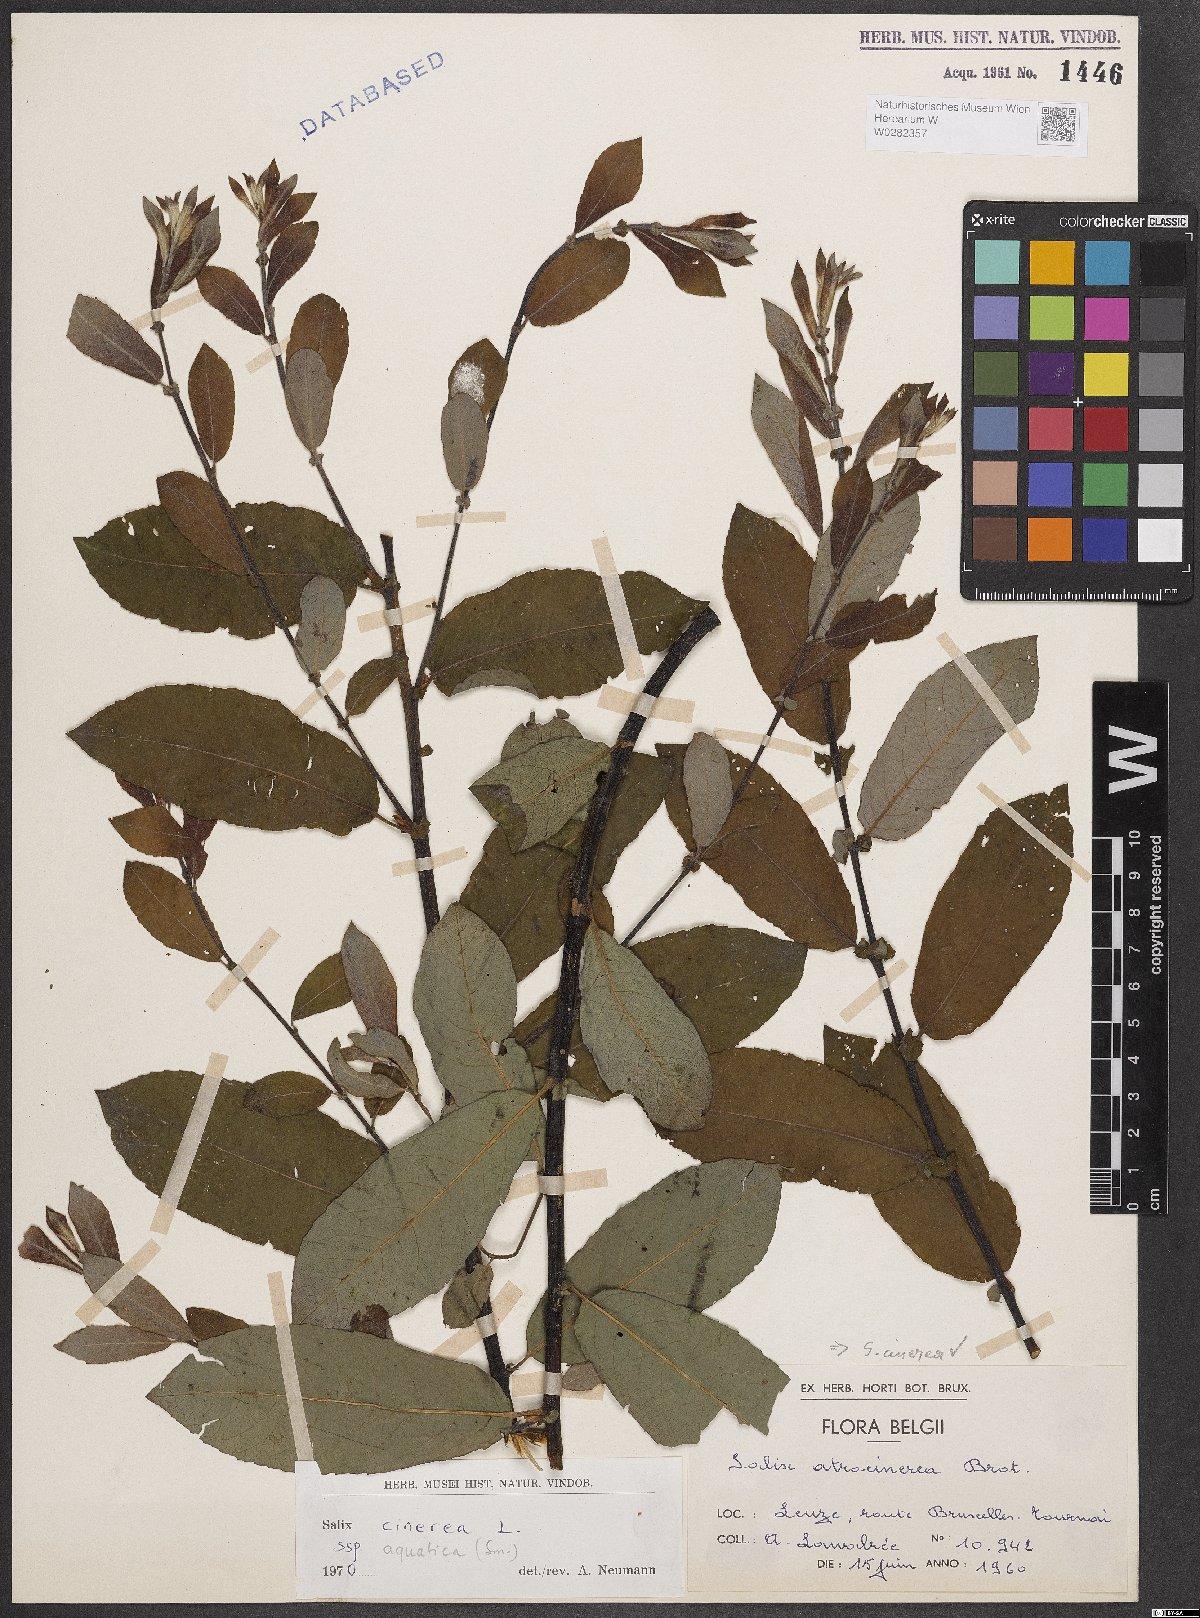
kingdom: Plantae
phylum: Tracheophyta
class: Magnoliopsida
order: Malpighiales
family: Salicaceae
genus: Salix
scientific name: Salix cinerea
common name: Common sallow
